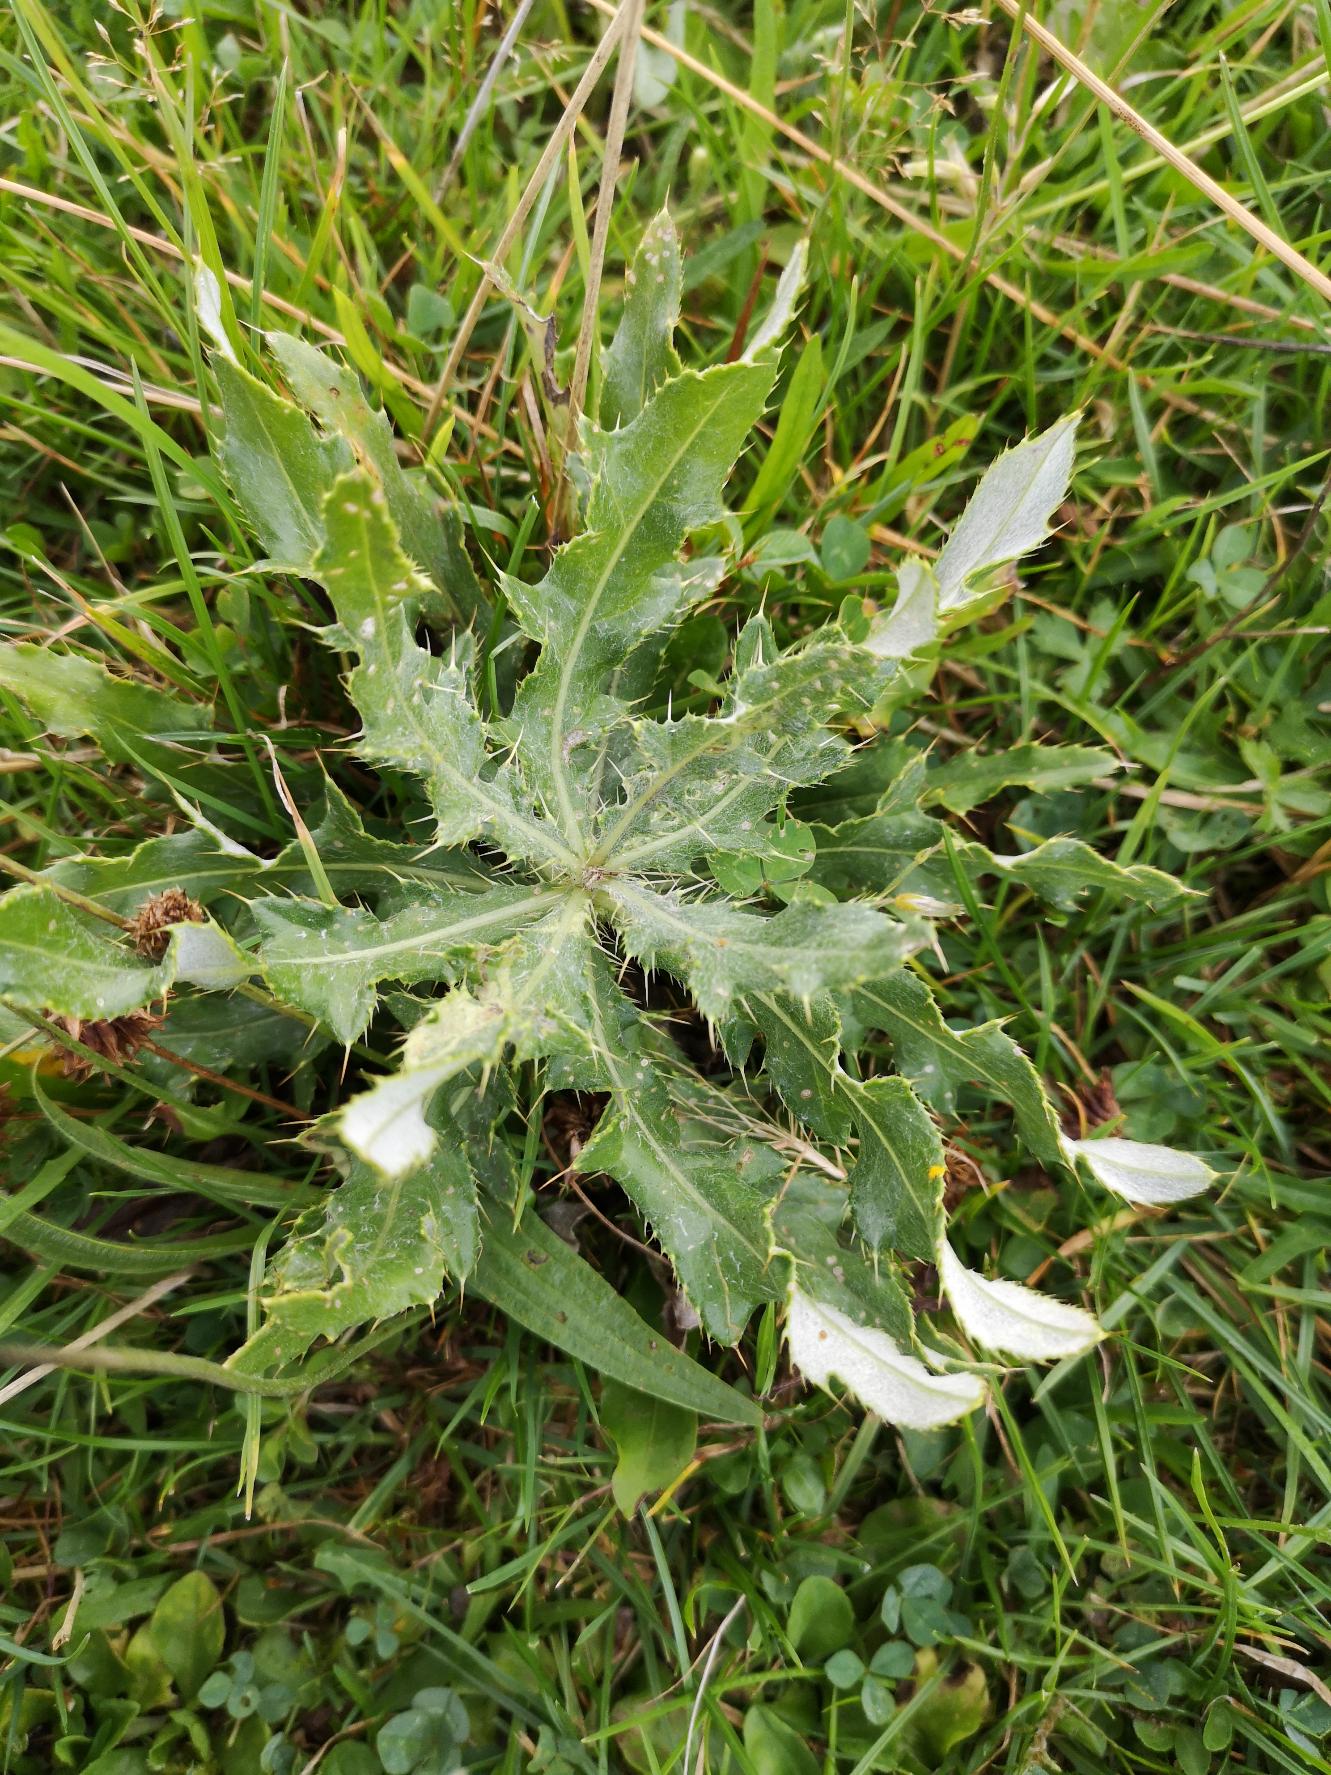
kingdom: Plantae
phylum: Tracheophyta
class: Magnoliopsida
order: Asterales
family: Asteraceae
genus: Cirsium
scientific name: Cirsium arvense
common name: Ager-tidsel
